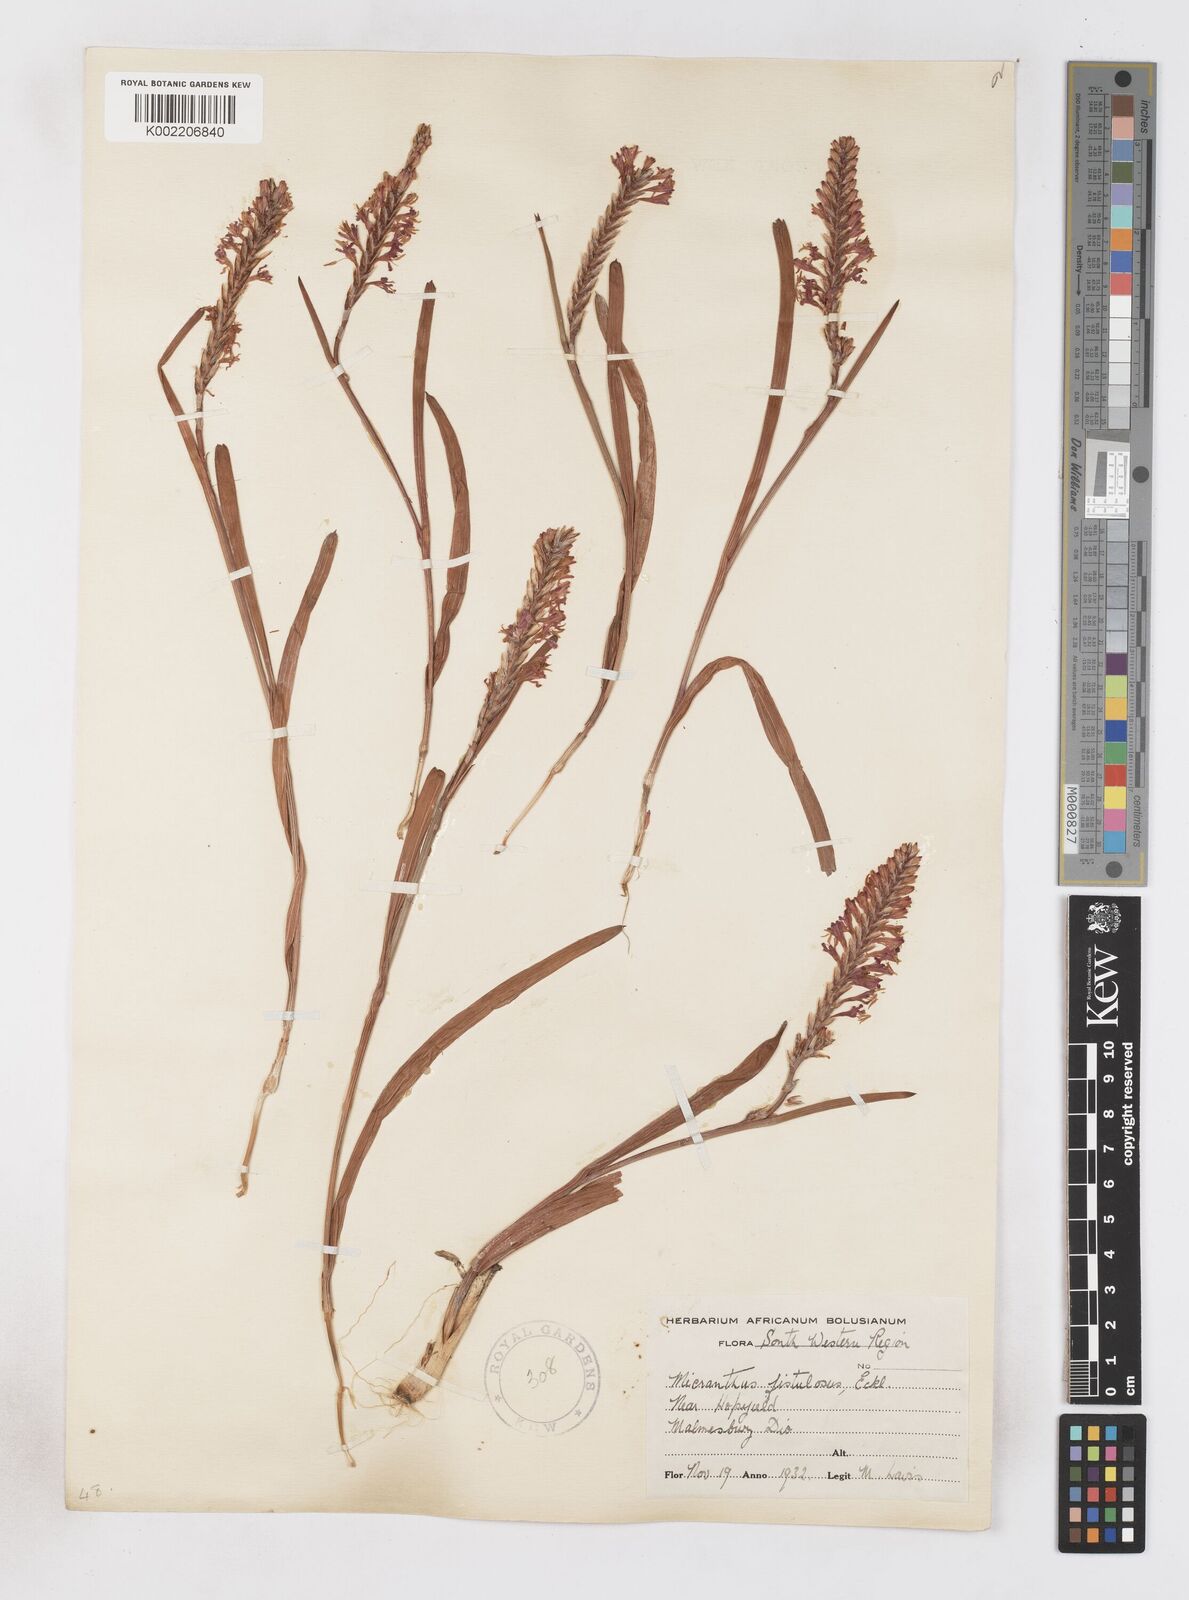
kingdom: Plantae
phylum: Tracheophyta
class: Liliopsida
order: Asparagales
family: Iridaceae
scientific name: Iridaceae
